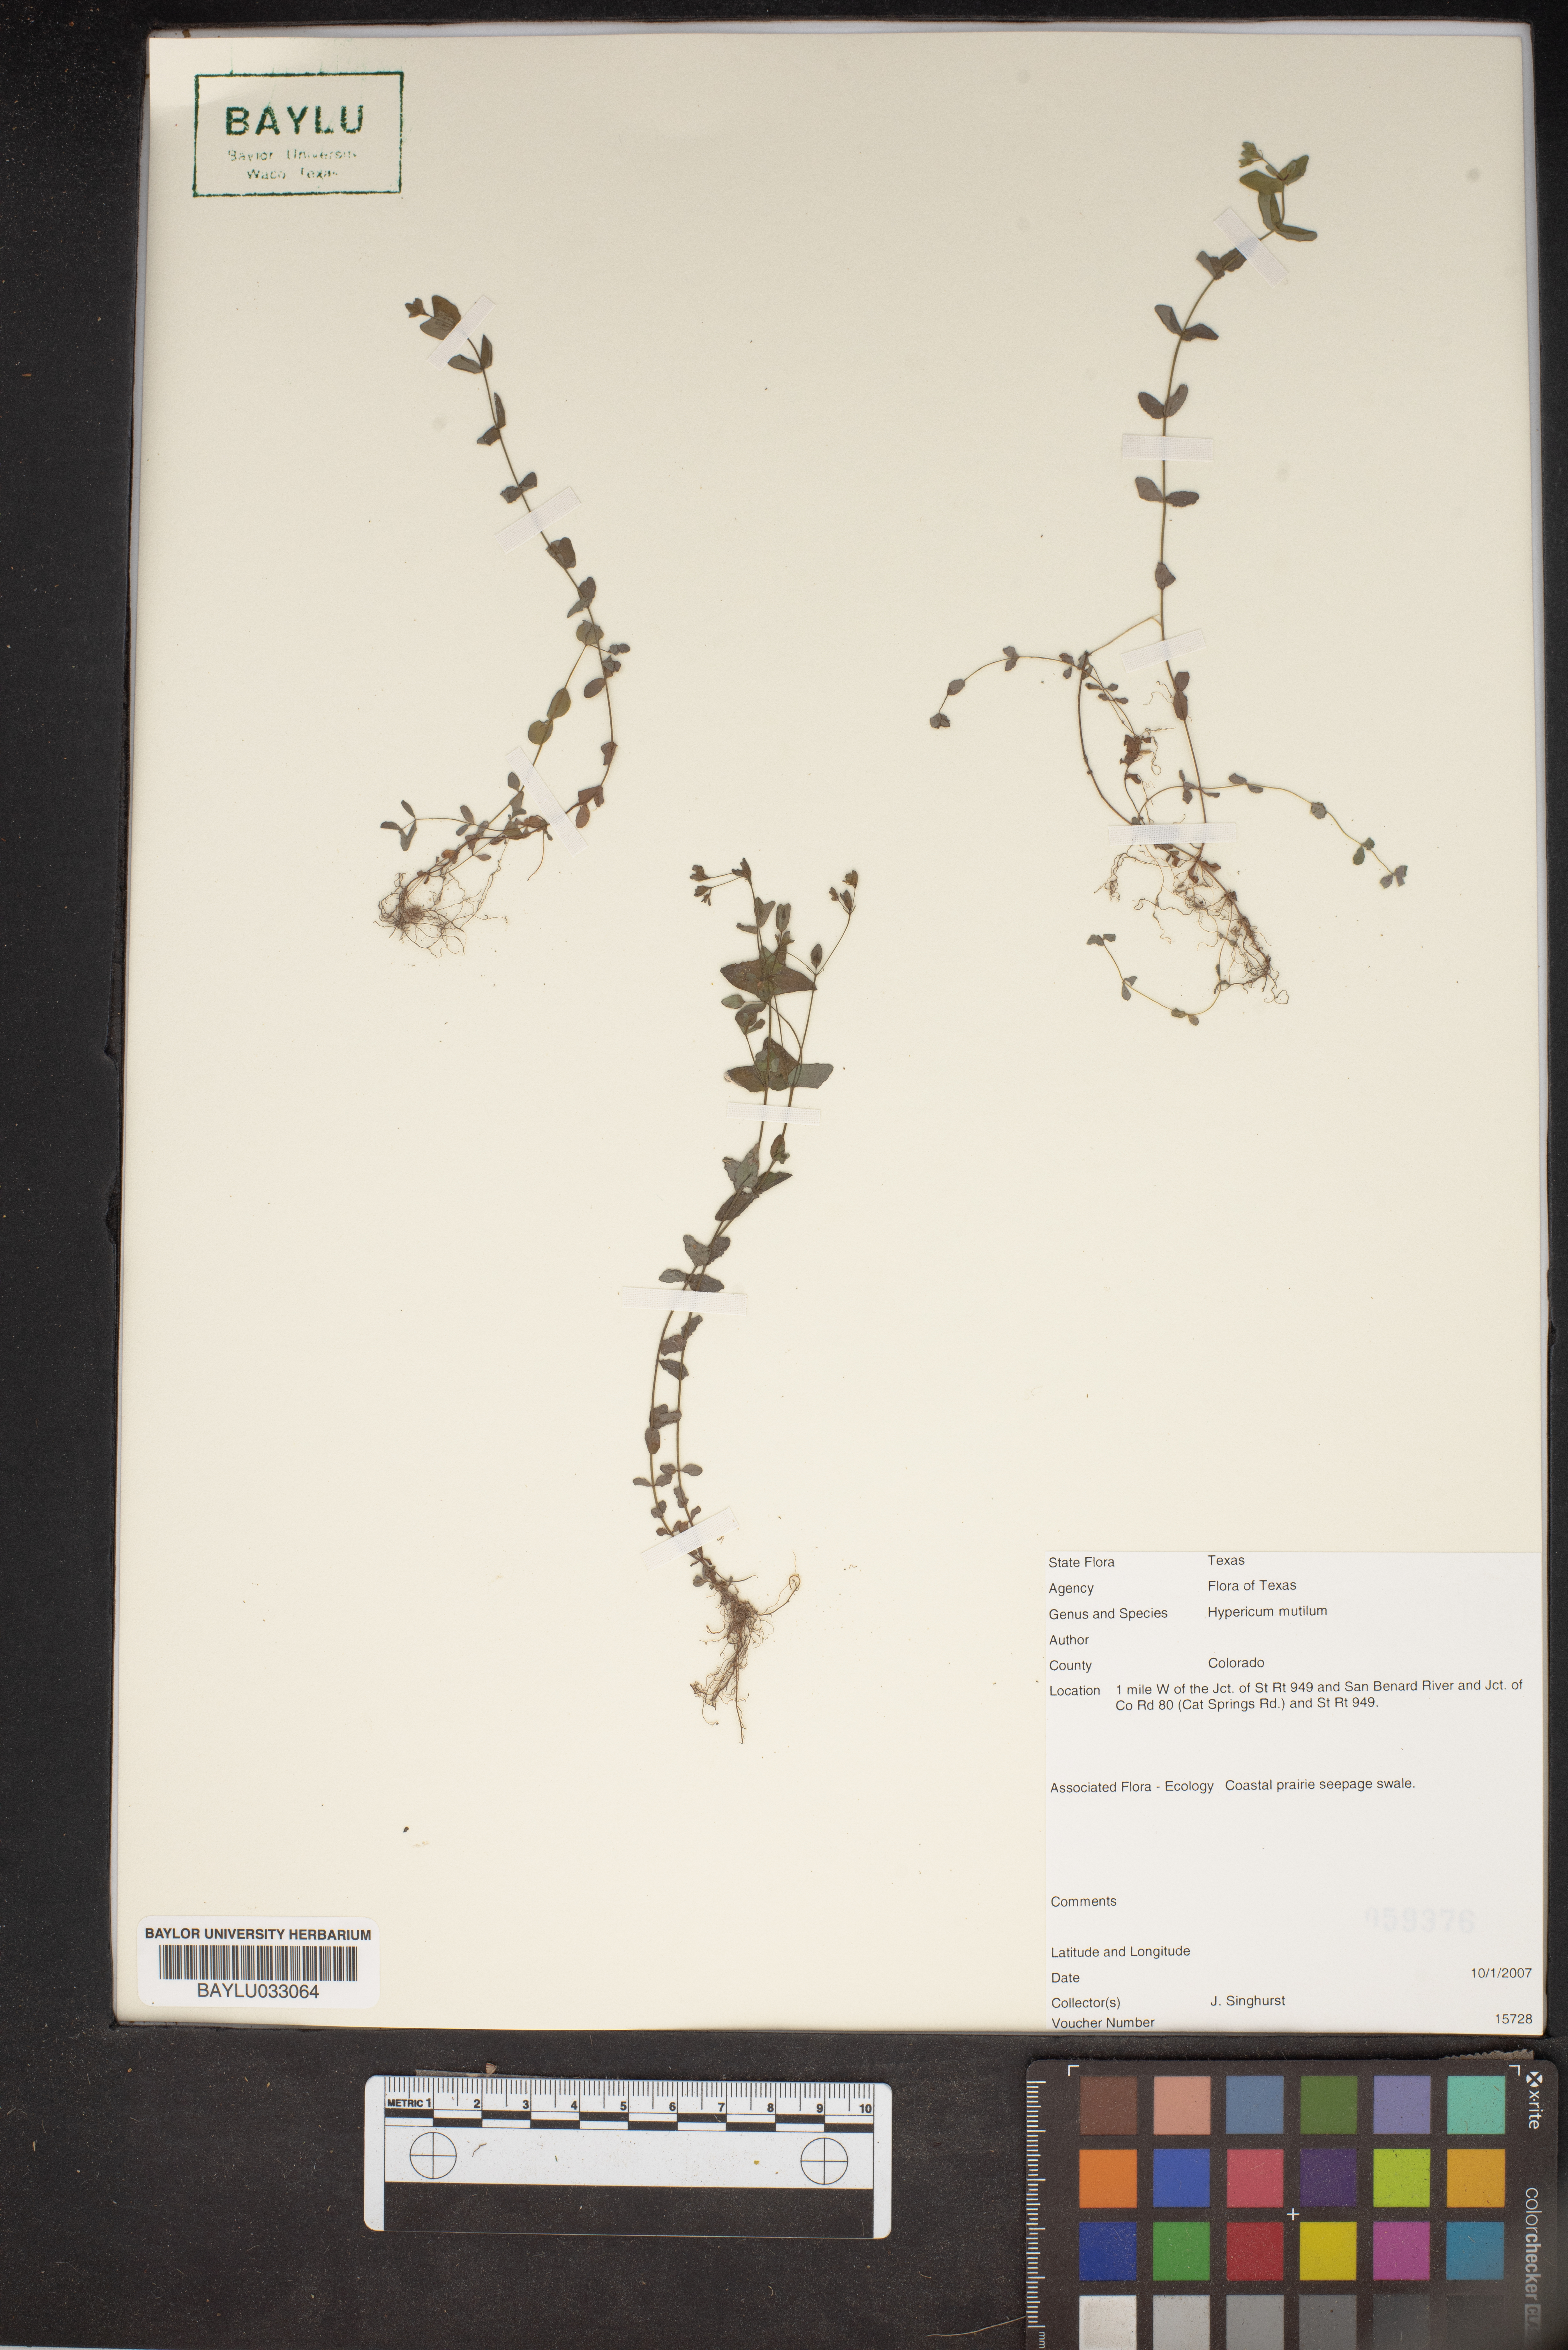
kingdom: Plantae
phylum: Tracheophyta
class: Magnoliopsida
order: Malpighiales
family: Hypericaceae
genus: Hypericum
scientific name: Hypericum mutilum
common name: Dwarf st. john's-wort
